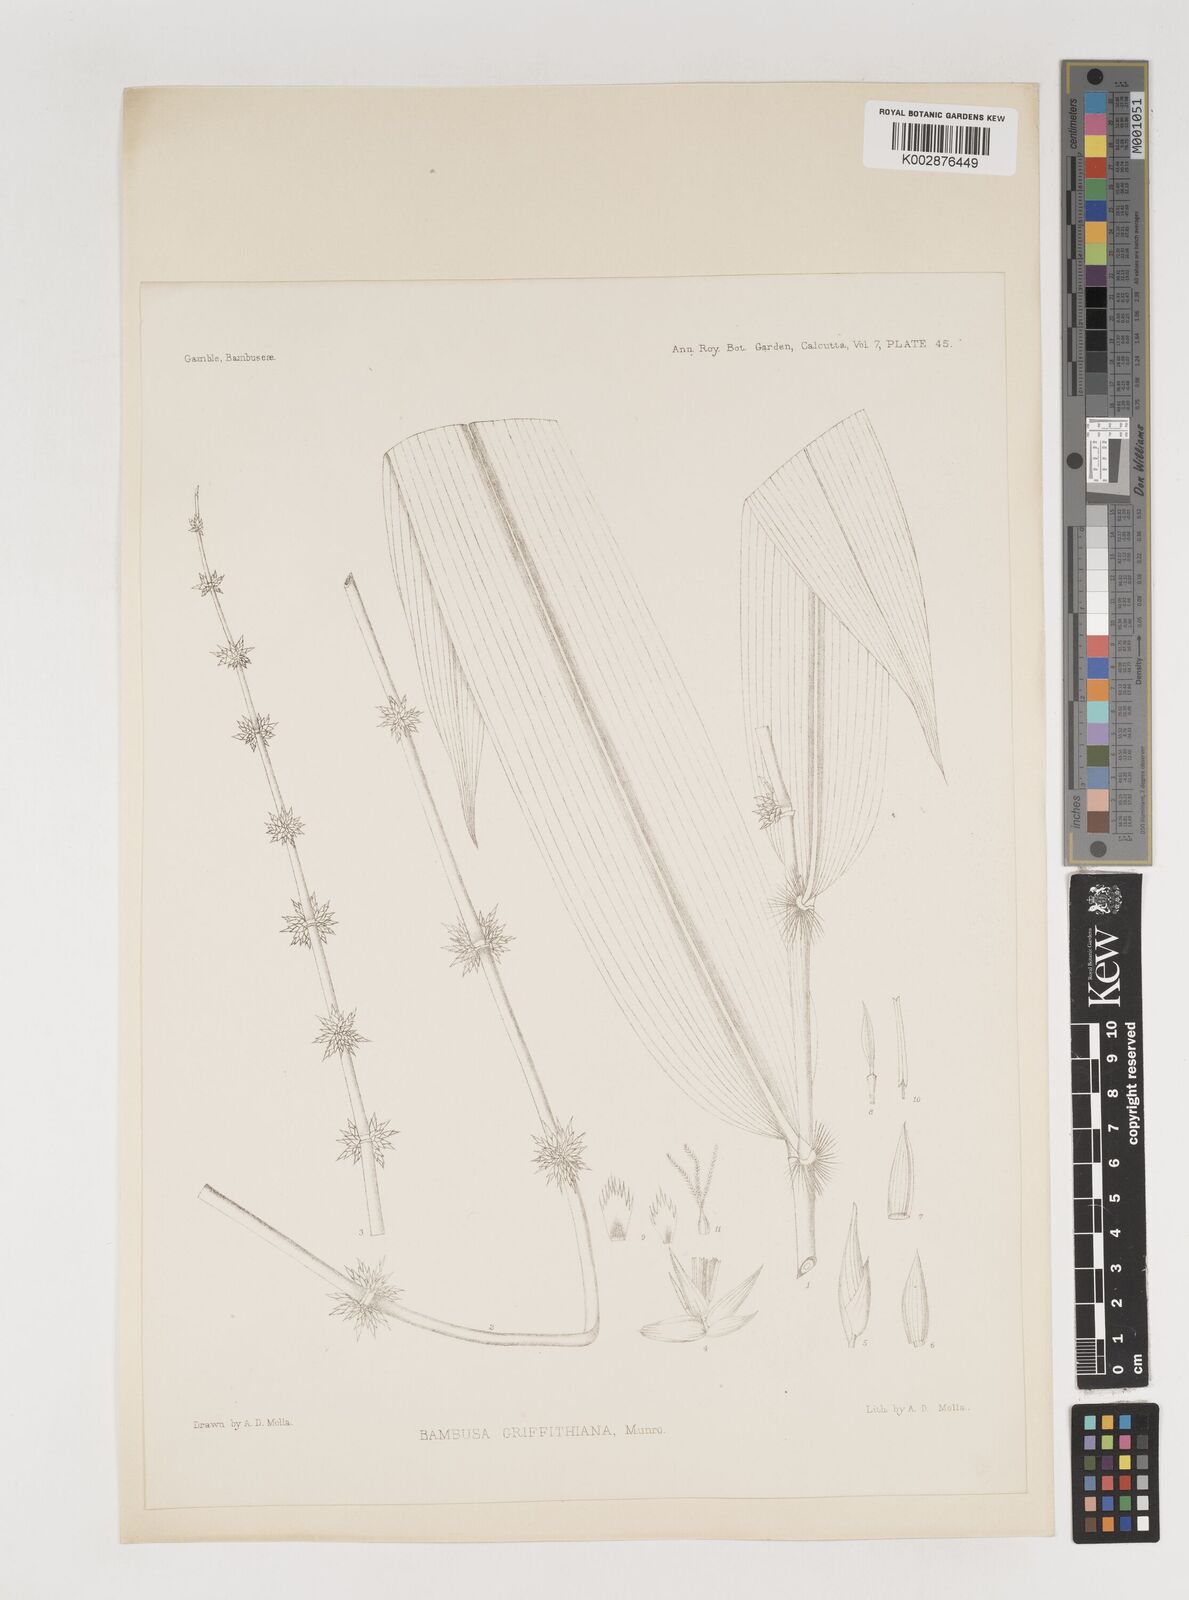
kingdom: Plantae
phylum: Tracheophyta
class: Liliopsida
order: Poales
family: Poaceae
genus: Bambusa
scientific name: Bambusa griffithiana
